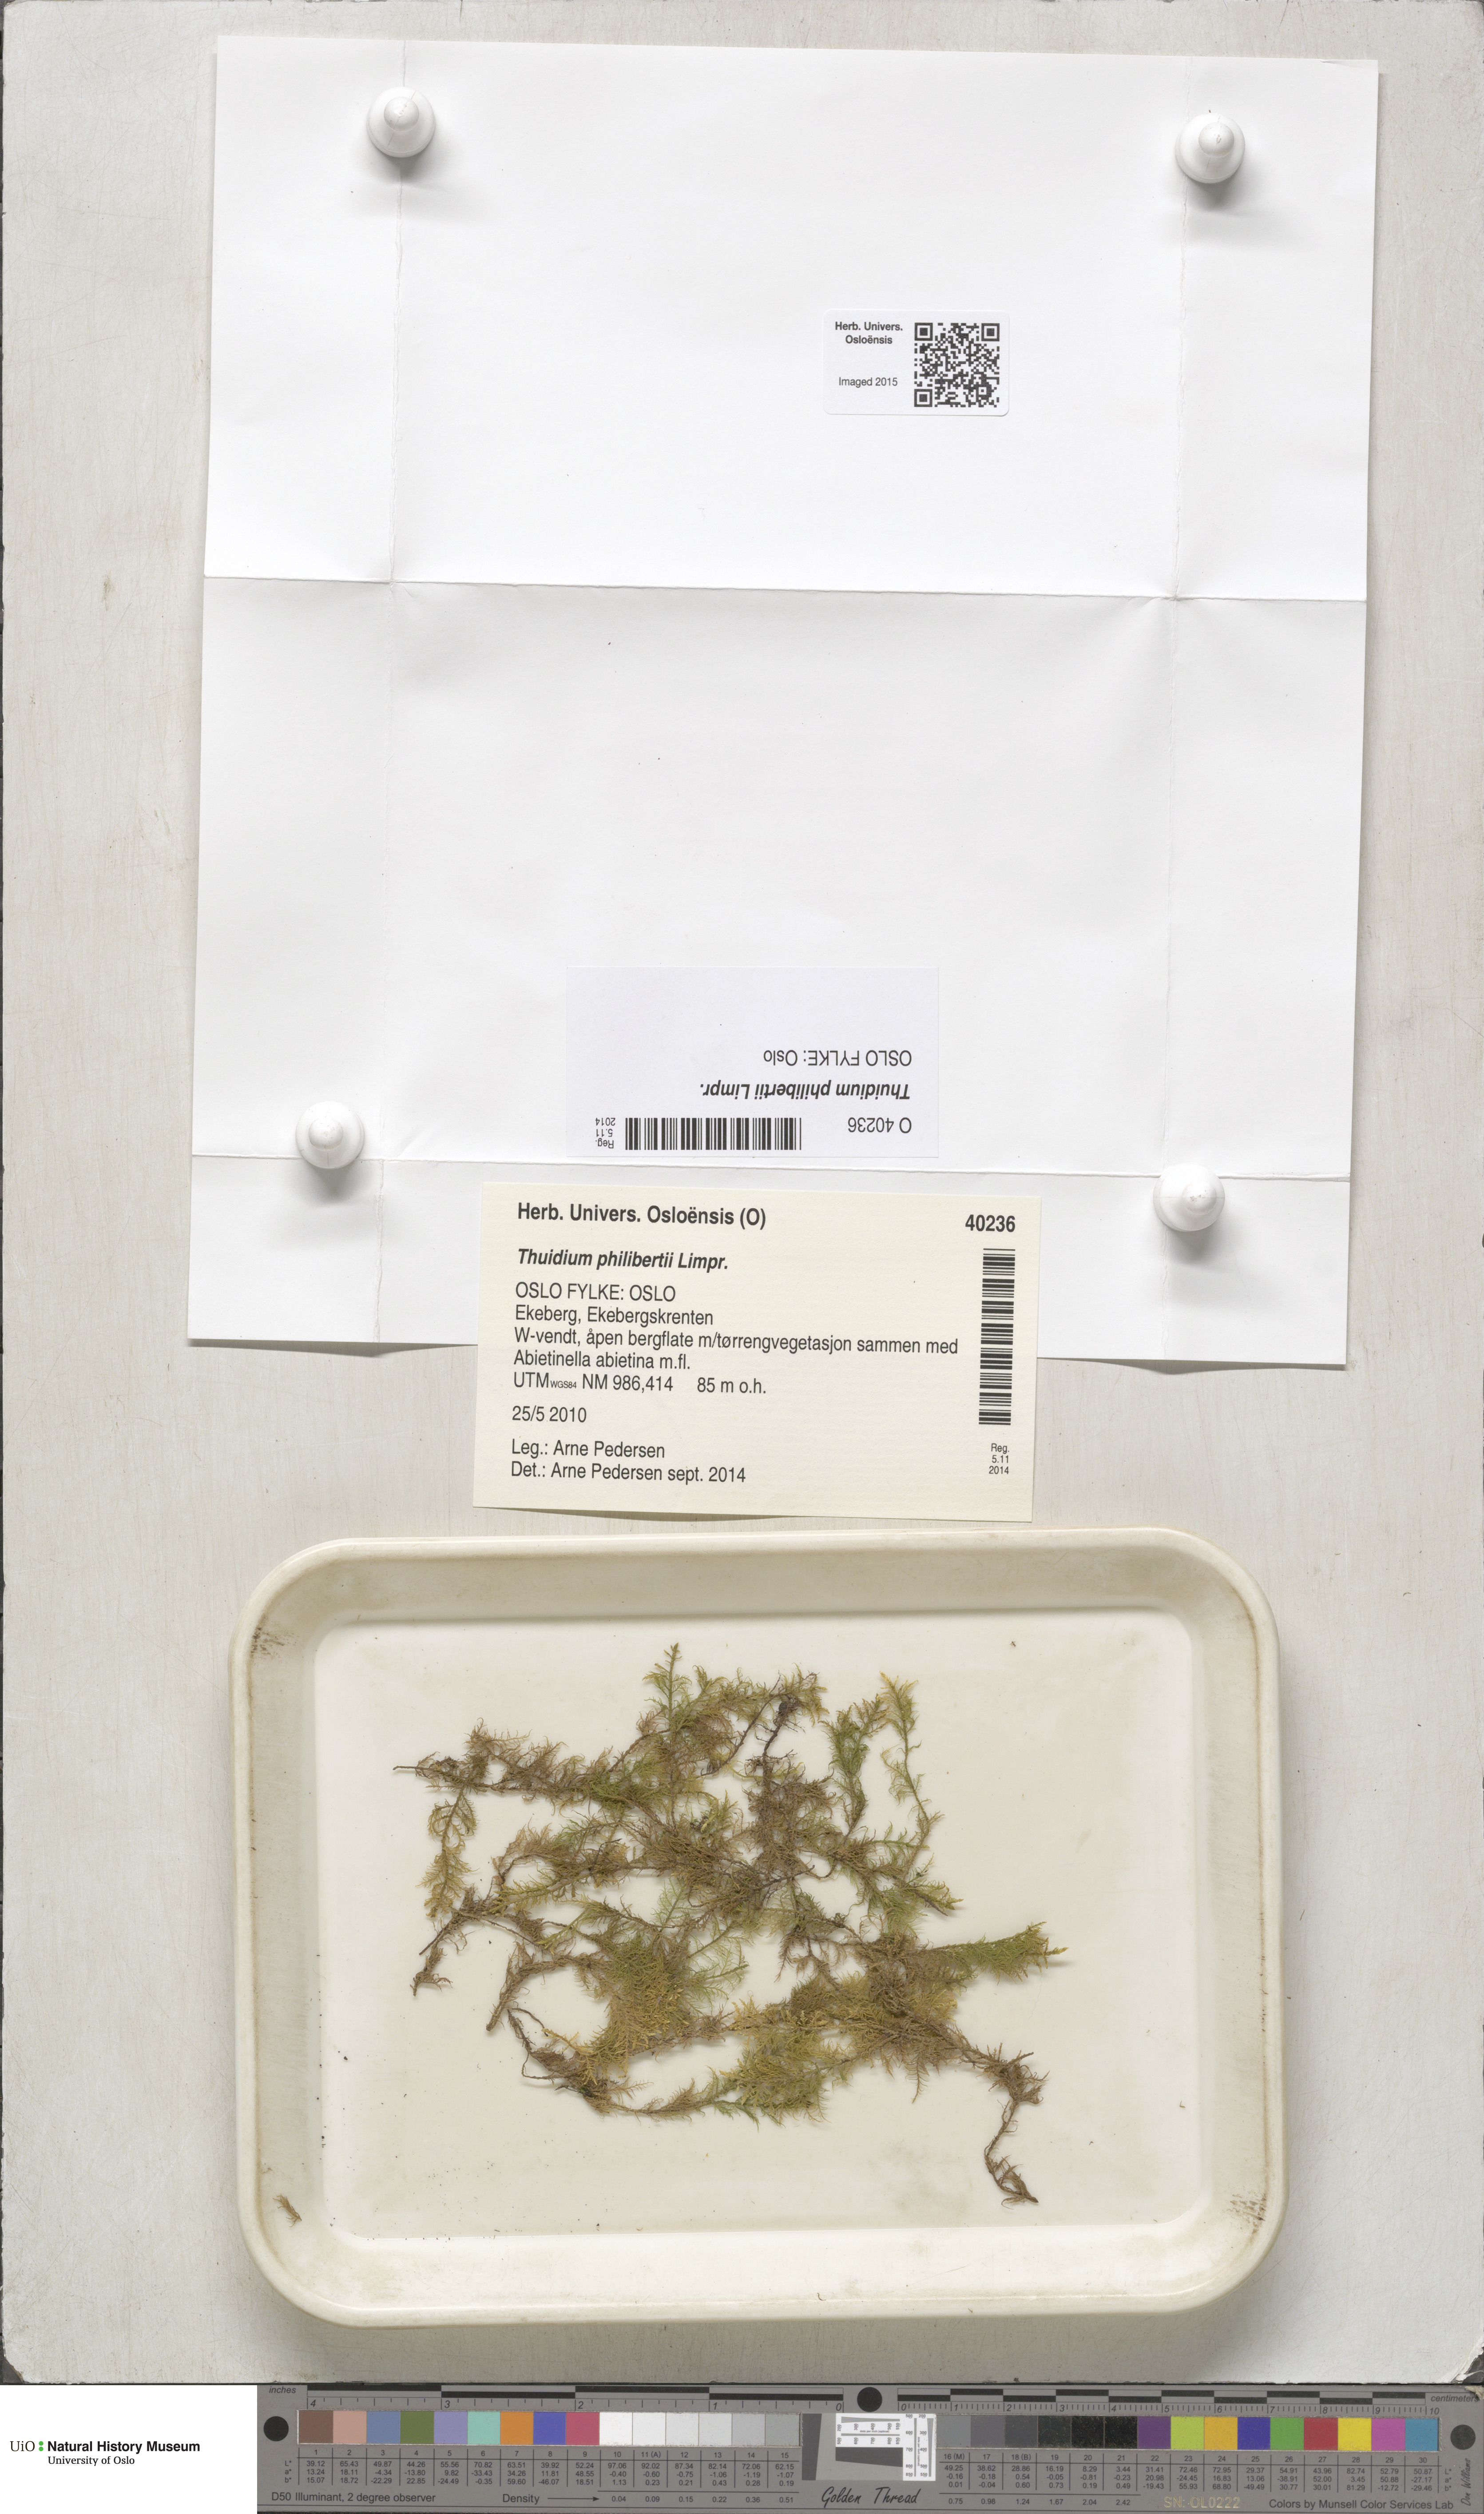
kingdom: Plantae
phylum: Bryophyta
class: Bryopsida
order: Hypnales
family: Thuidiaceae
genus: Thuidium
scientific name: Thuidium assimile
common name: Philibert's fern moss
